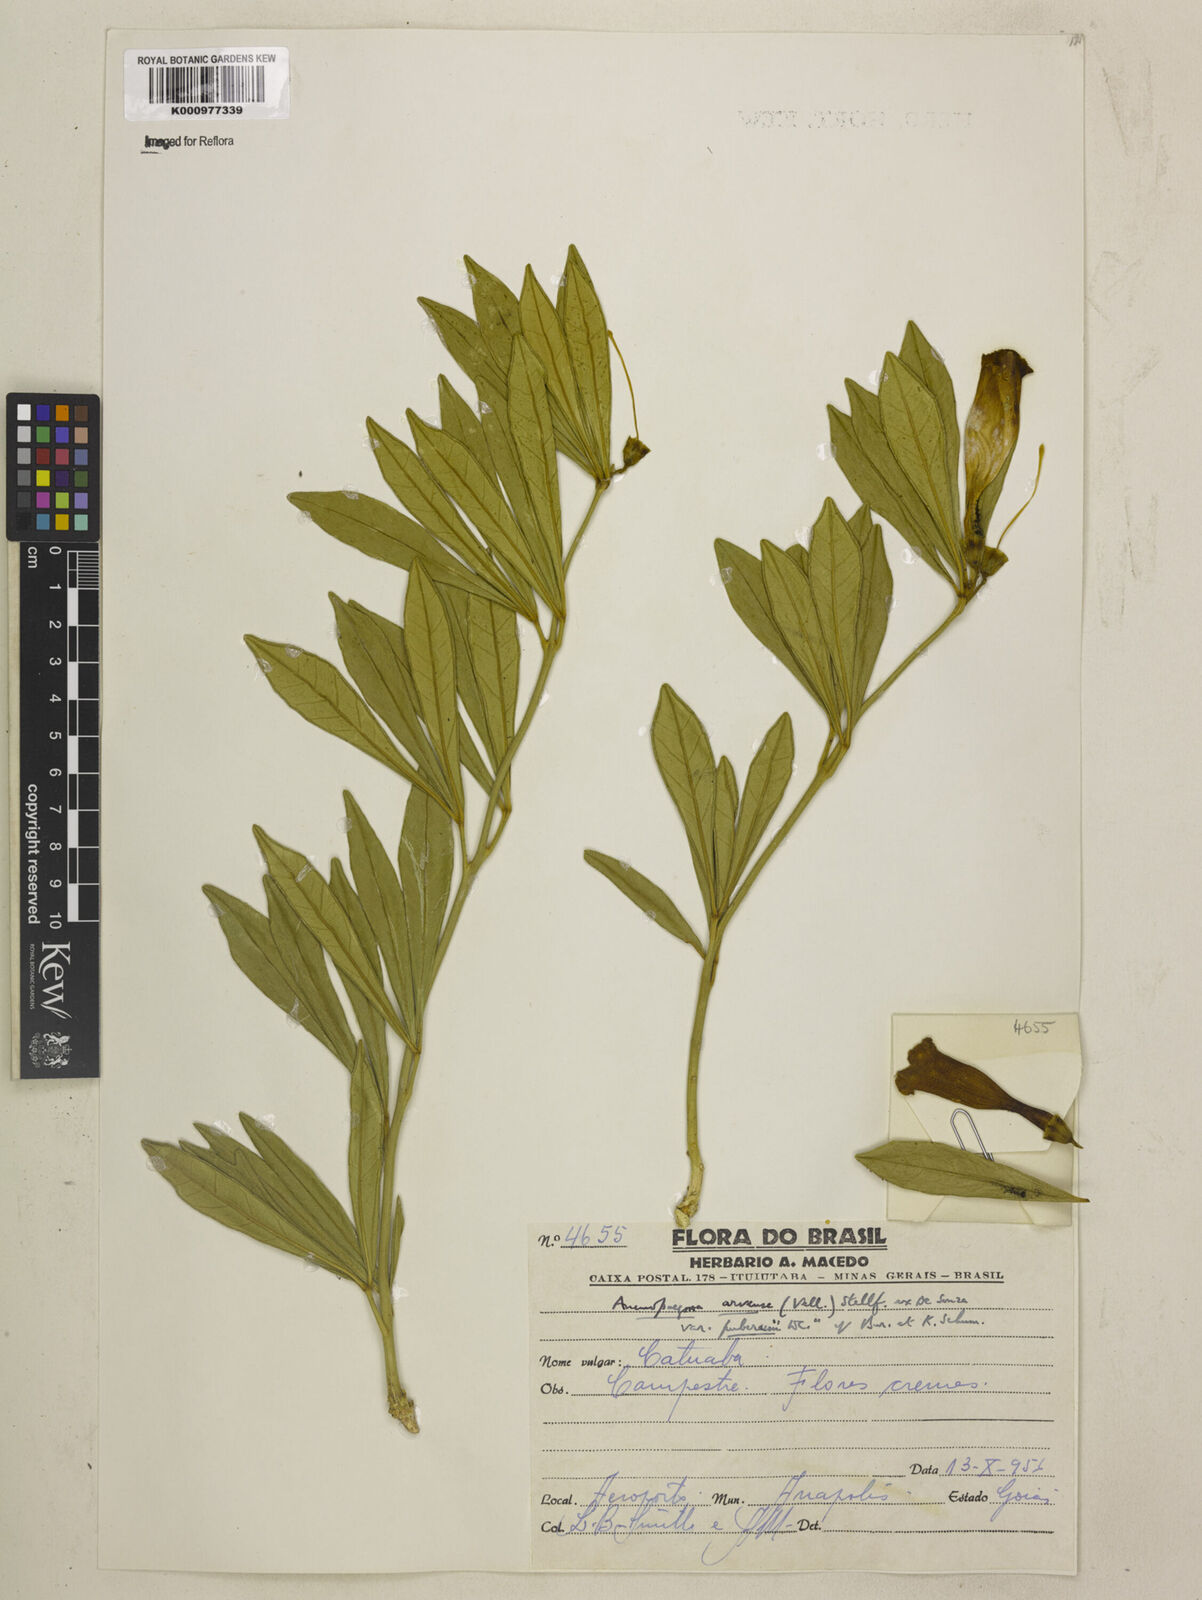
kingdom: Plantae
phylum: Tracheophyta
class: Magnoliopsida
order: Lamiales
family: Bignoniaceae
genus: Anemopaegma
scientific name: Anemopaegma acutifolium
